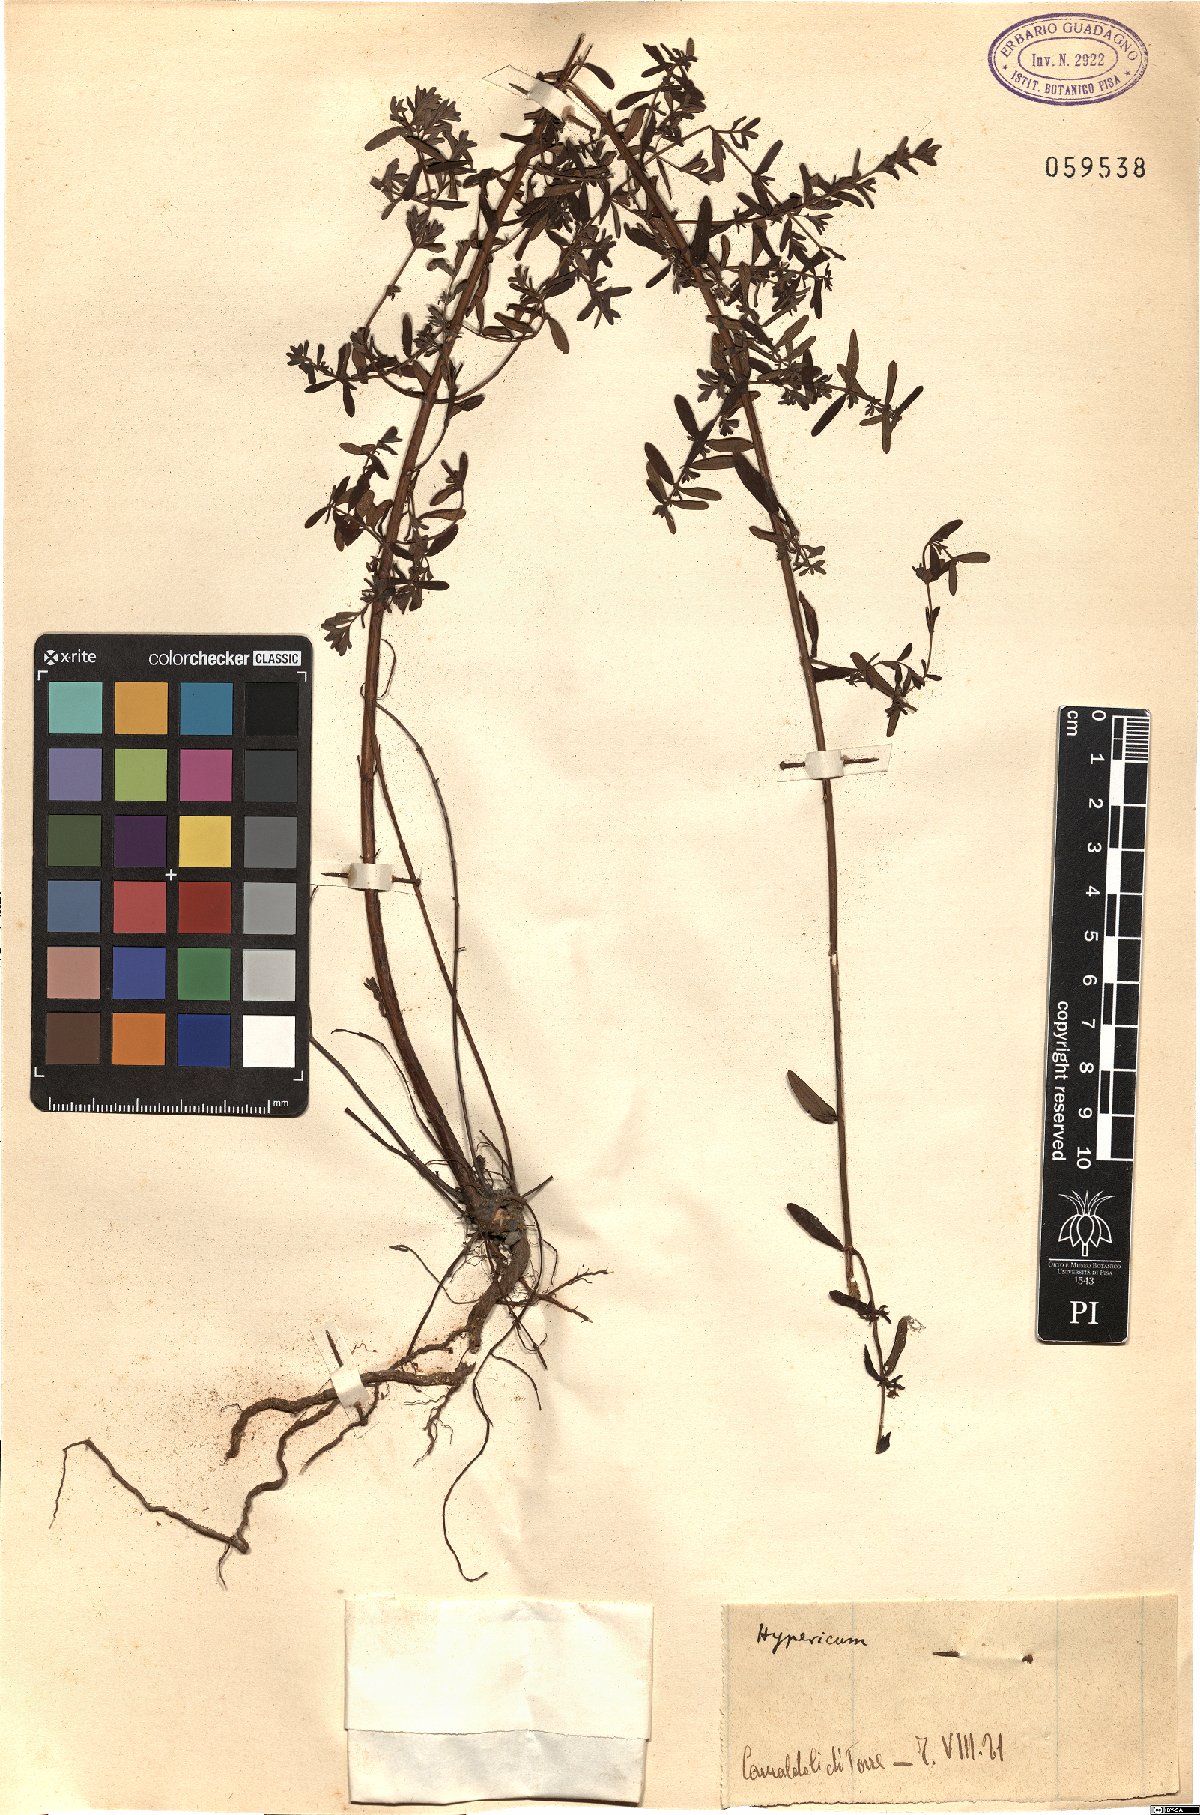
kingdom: Plantae
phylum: Tracheophyta
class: Magnoliopsida
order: Malpighiales
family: Hypericaceae
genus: Hypericum
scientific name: Hypericum
